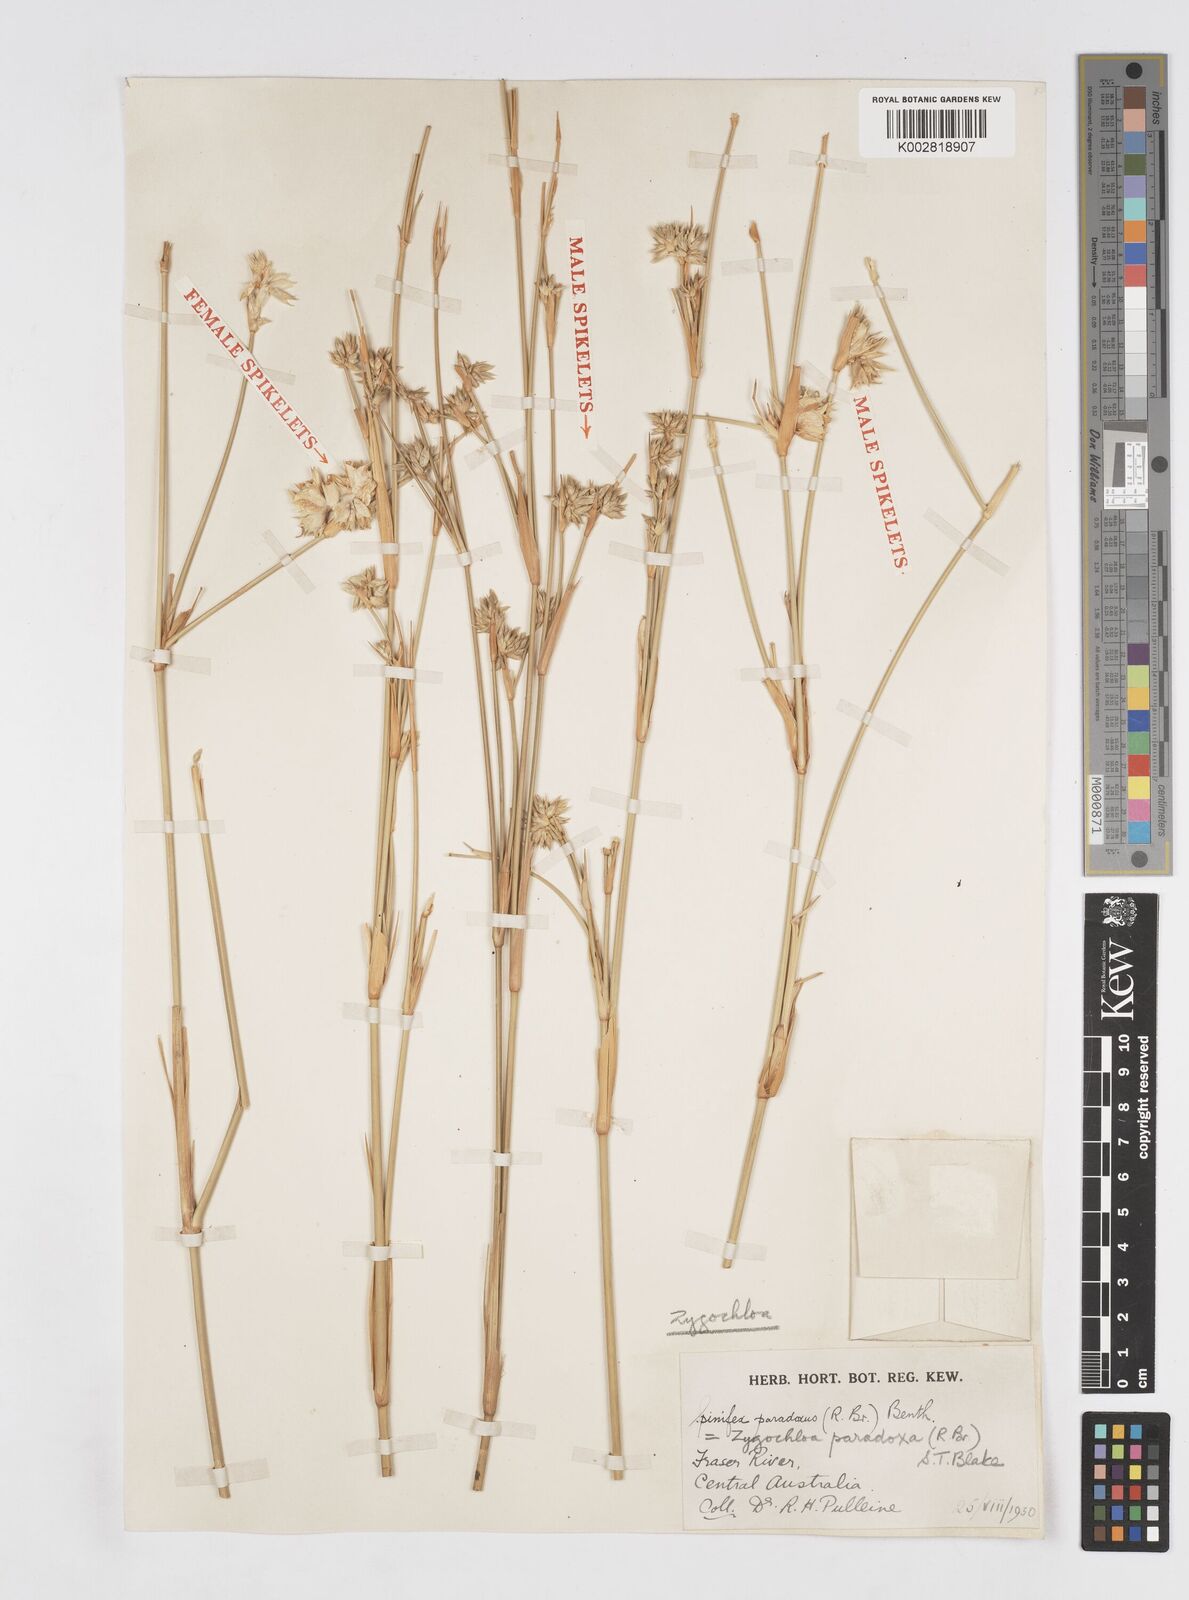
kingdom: Plantae
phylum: Tracheophyta
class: Liliopsida
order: Poales
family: Poaceae
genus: Zygochloa
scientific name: Zygochloa paradoxa
